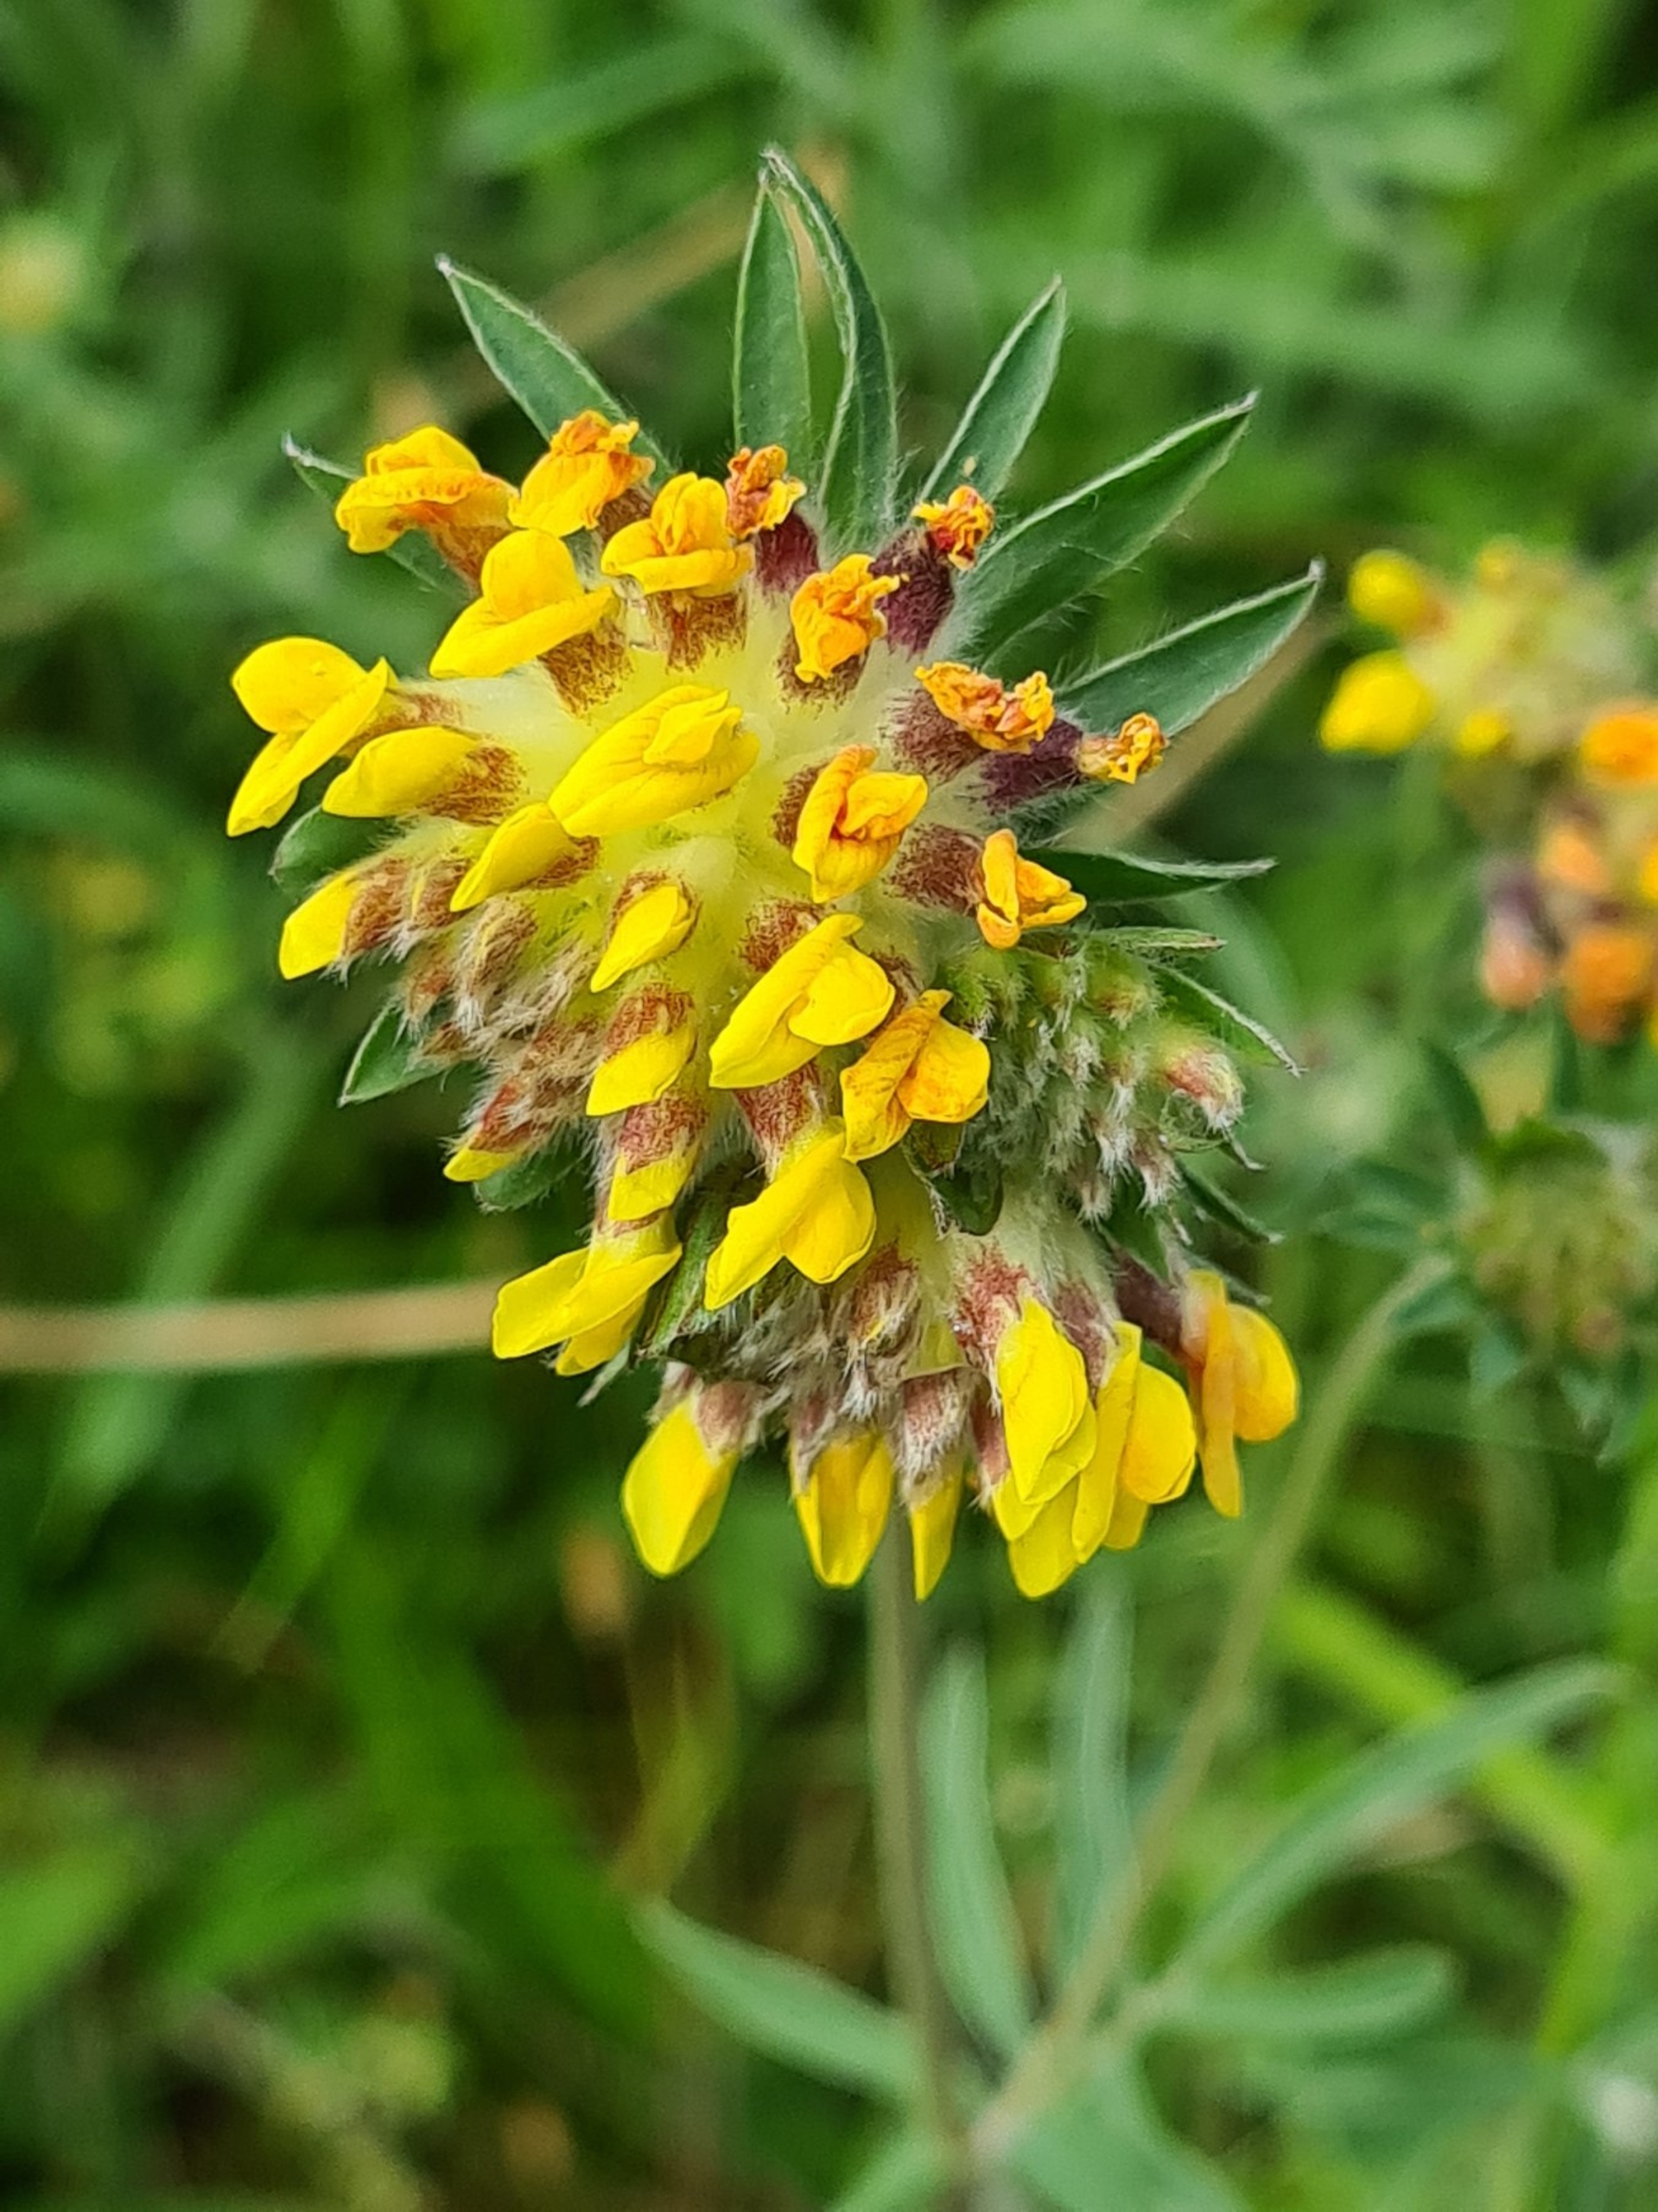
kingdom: Plantae
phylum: Tracheophyta
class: Magnoliopsida
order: Fabales
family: Fabaceae
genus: Anthyllis
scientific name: Anthyllis vulneraria
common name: Rundbælg
